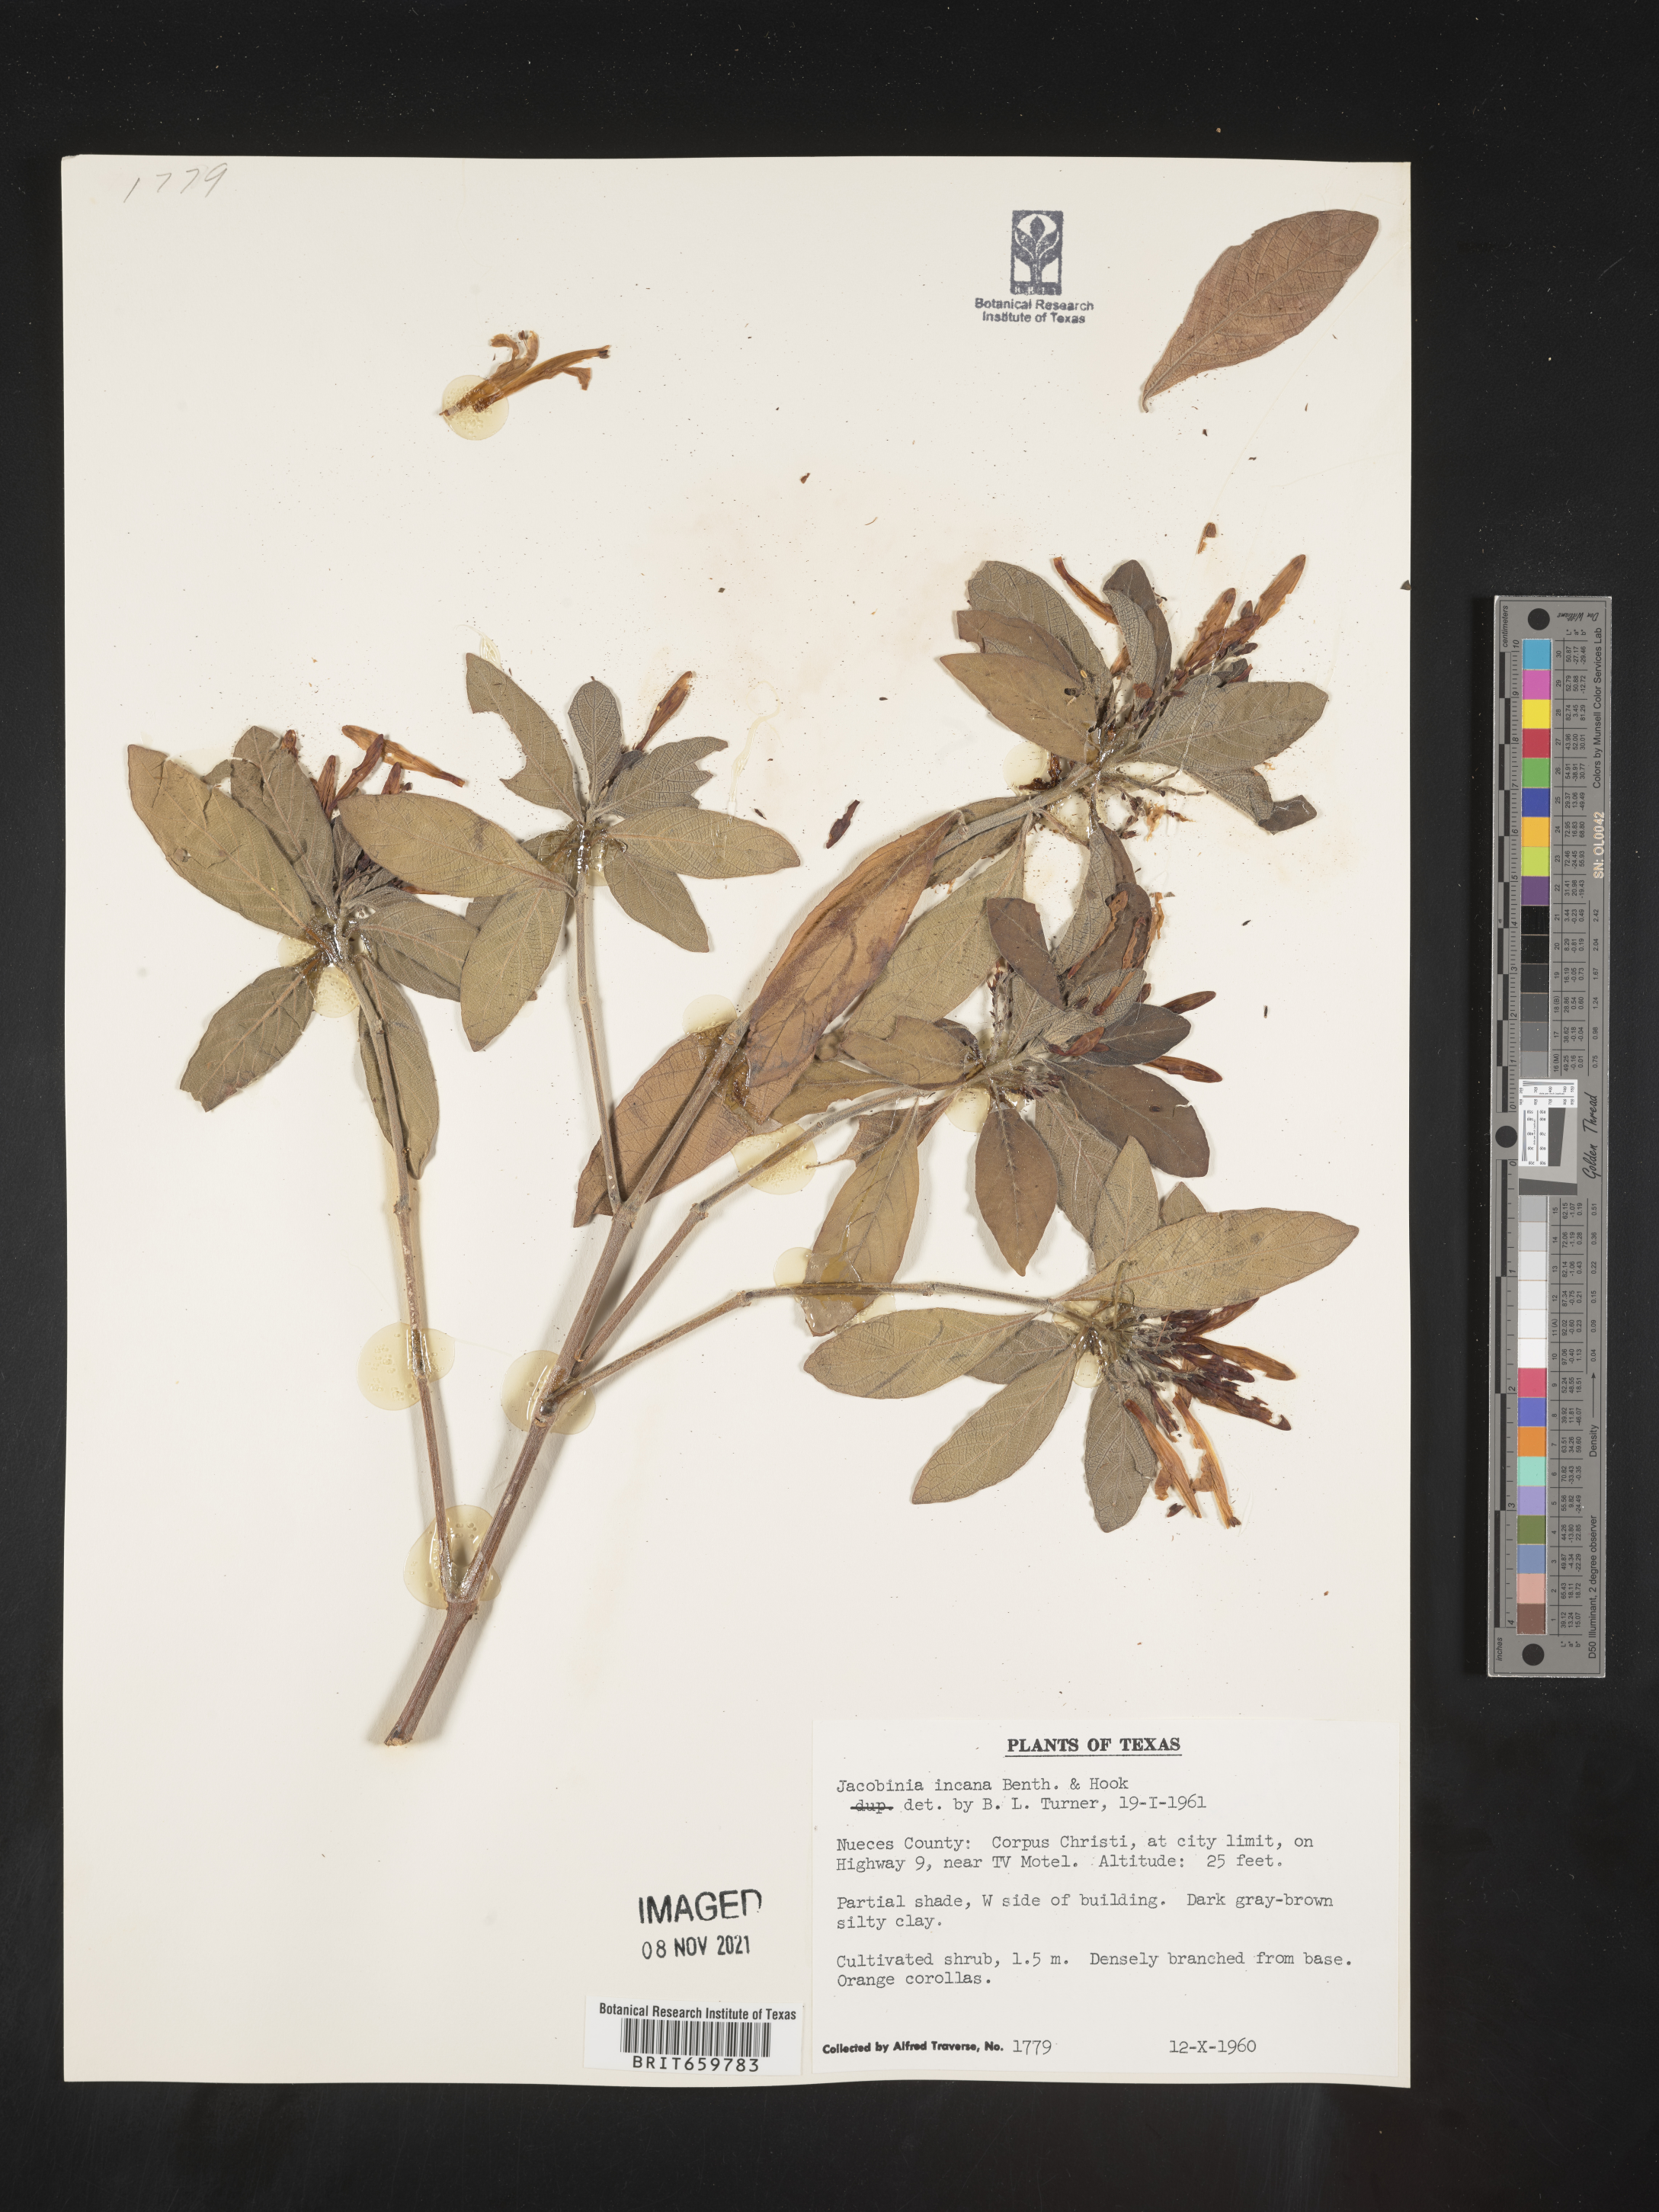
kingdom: Plantae
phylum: Tracheophyta
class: Magnoliopsida
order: Lamiales
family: Acanthaceae
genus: Justicia
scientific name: Justicia
